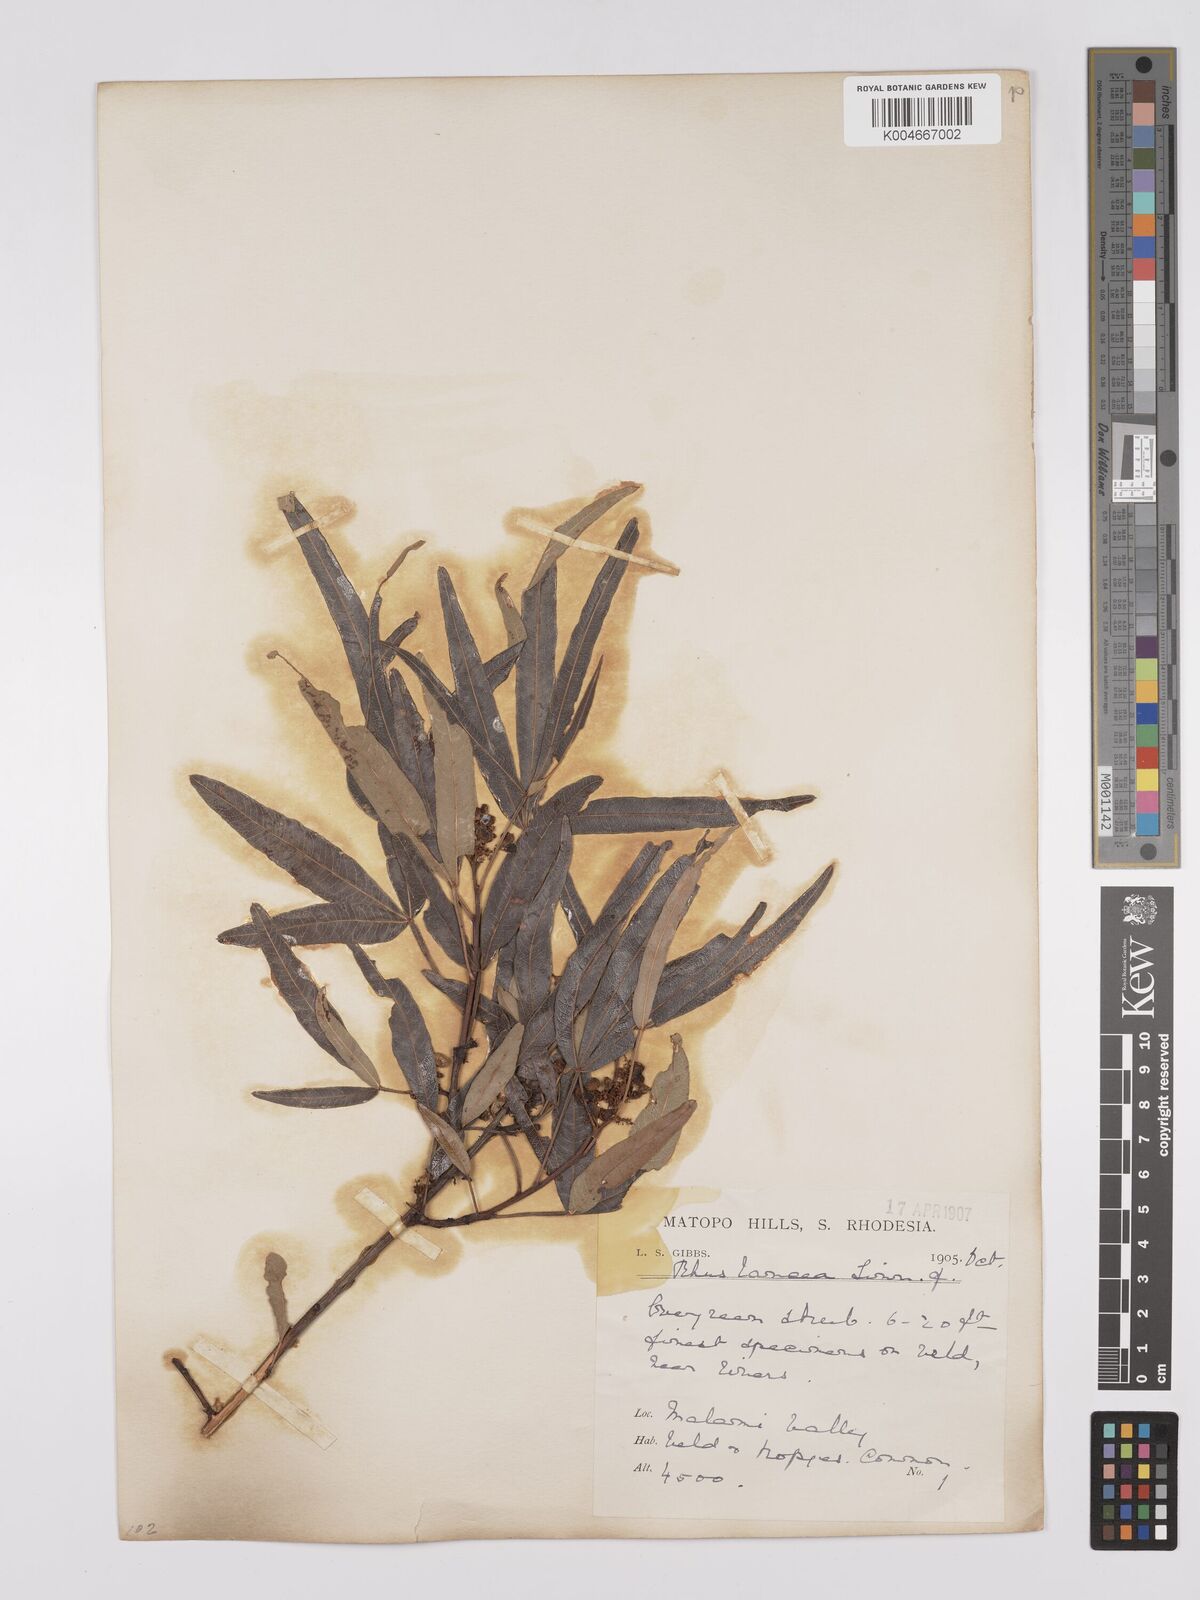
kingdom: Plantae
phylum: Tracheophyta
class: Magnoliopsida
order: Sapindales
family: Anacardiaceae
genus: Searsia
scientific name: Searsia lancea
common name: Cashew
